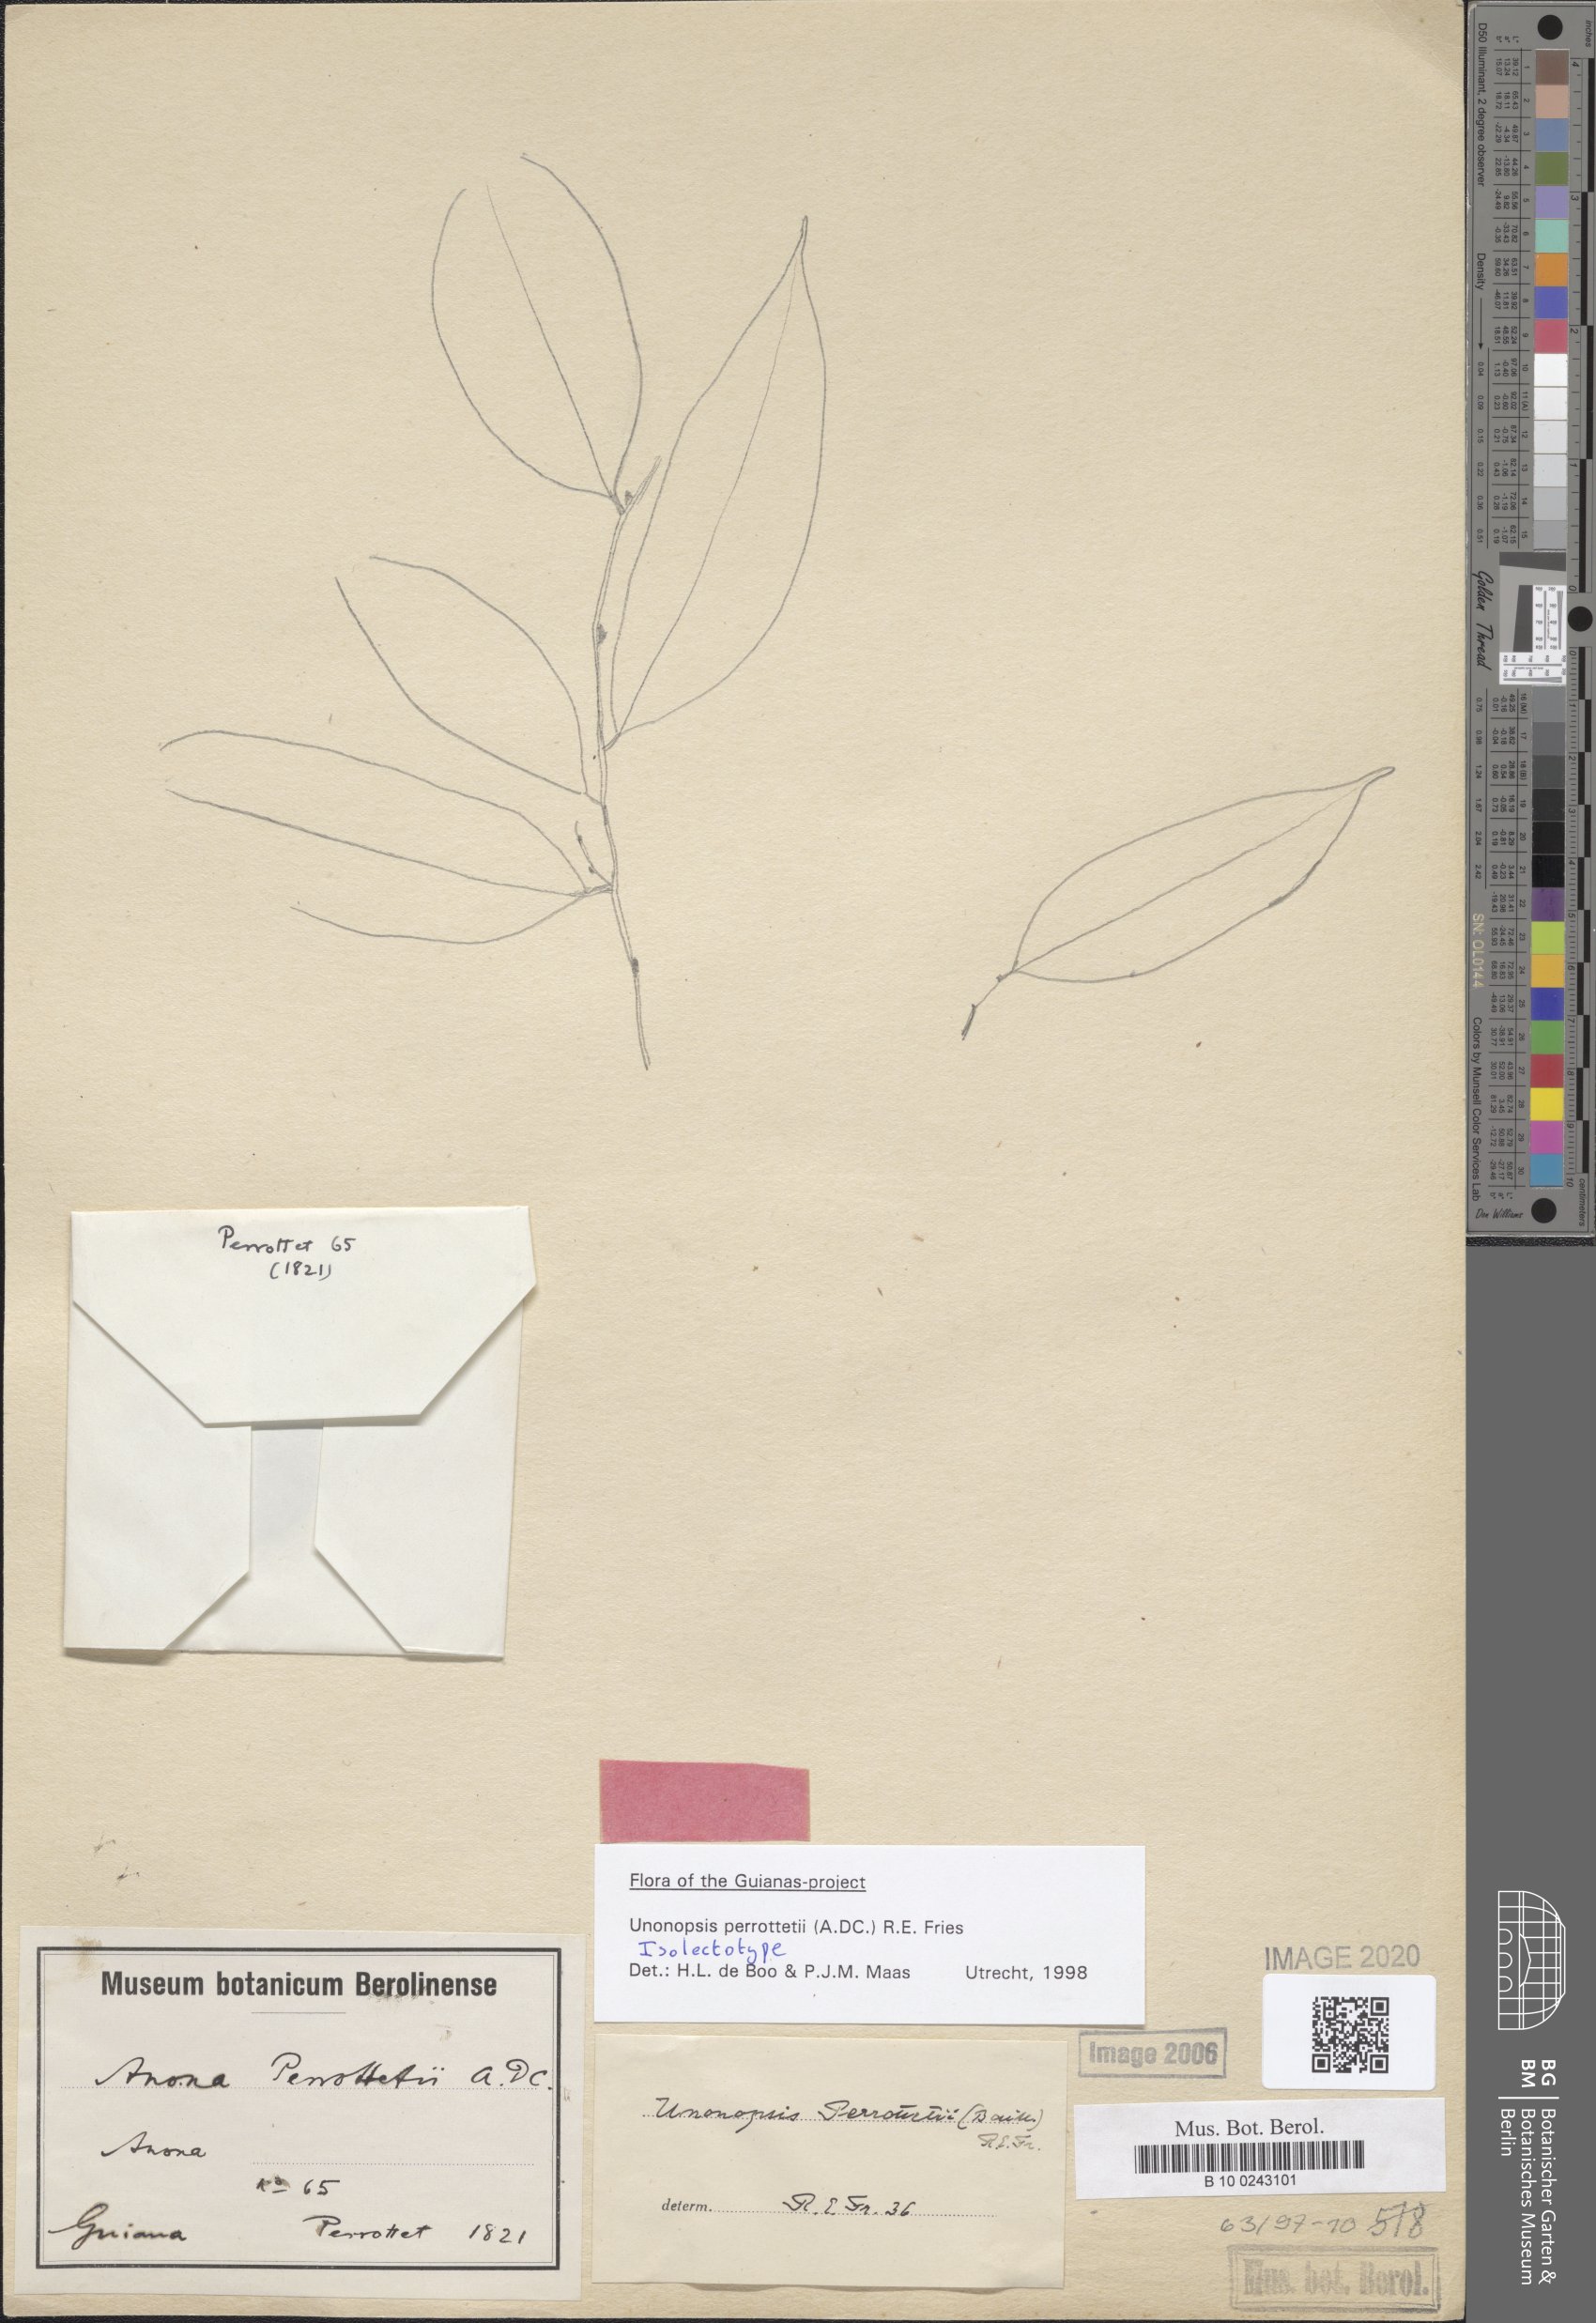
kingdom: Plantae
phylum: Tracheophyta
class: Magnoliopsida
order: Magnoliales
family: Annonaceae
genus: Unonopsis
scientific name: Unonopsis perrottetii
